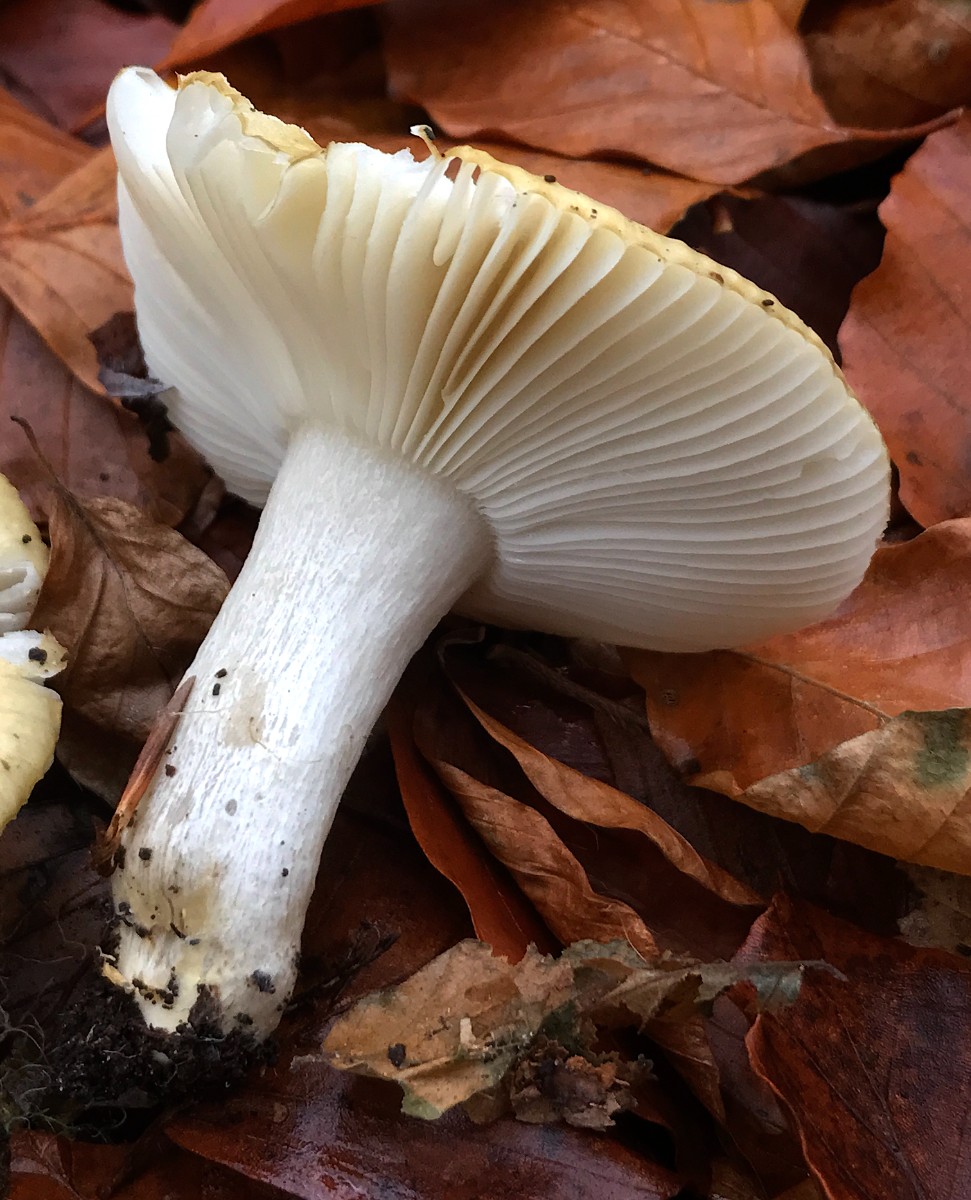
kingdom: Fungi
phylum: Basidiomycota
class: Agaricomycetes
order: Russulales
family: Russulaceae
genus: Russula
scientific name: Russula ochroleuca
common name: okkergul skørhat
